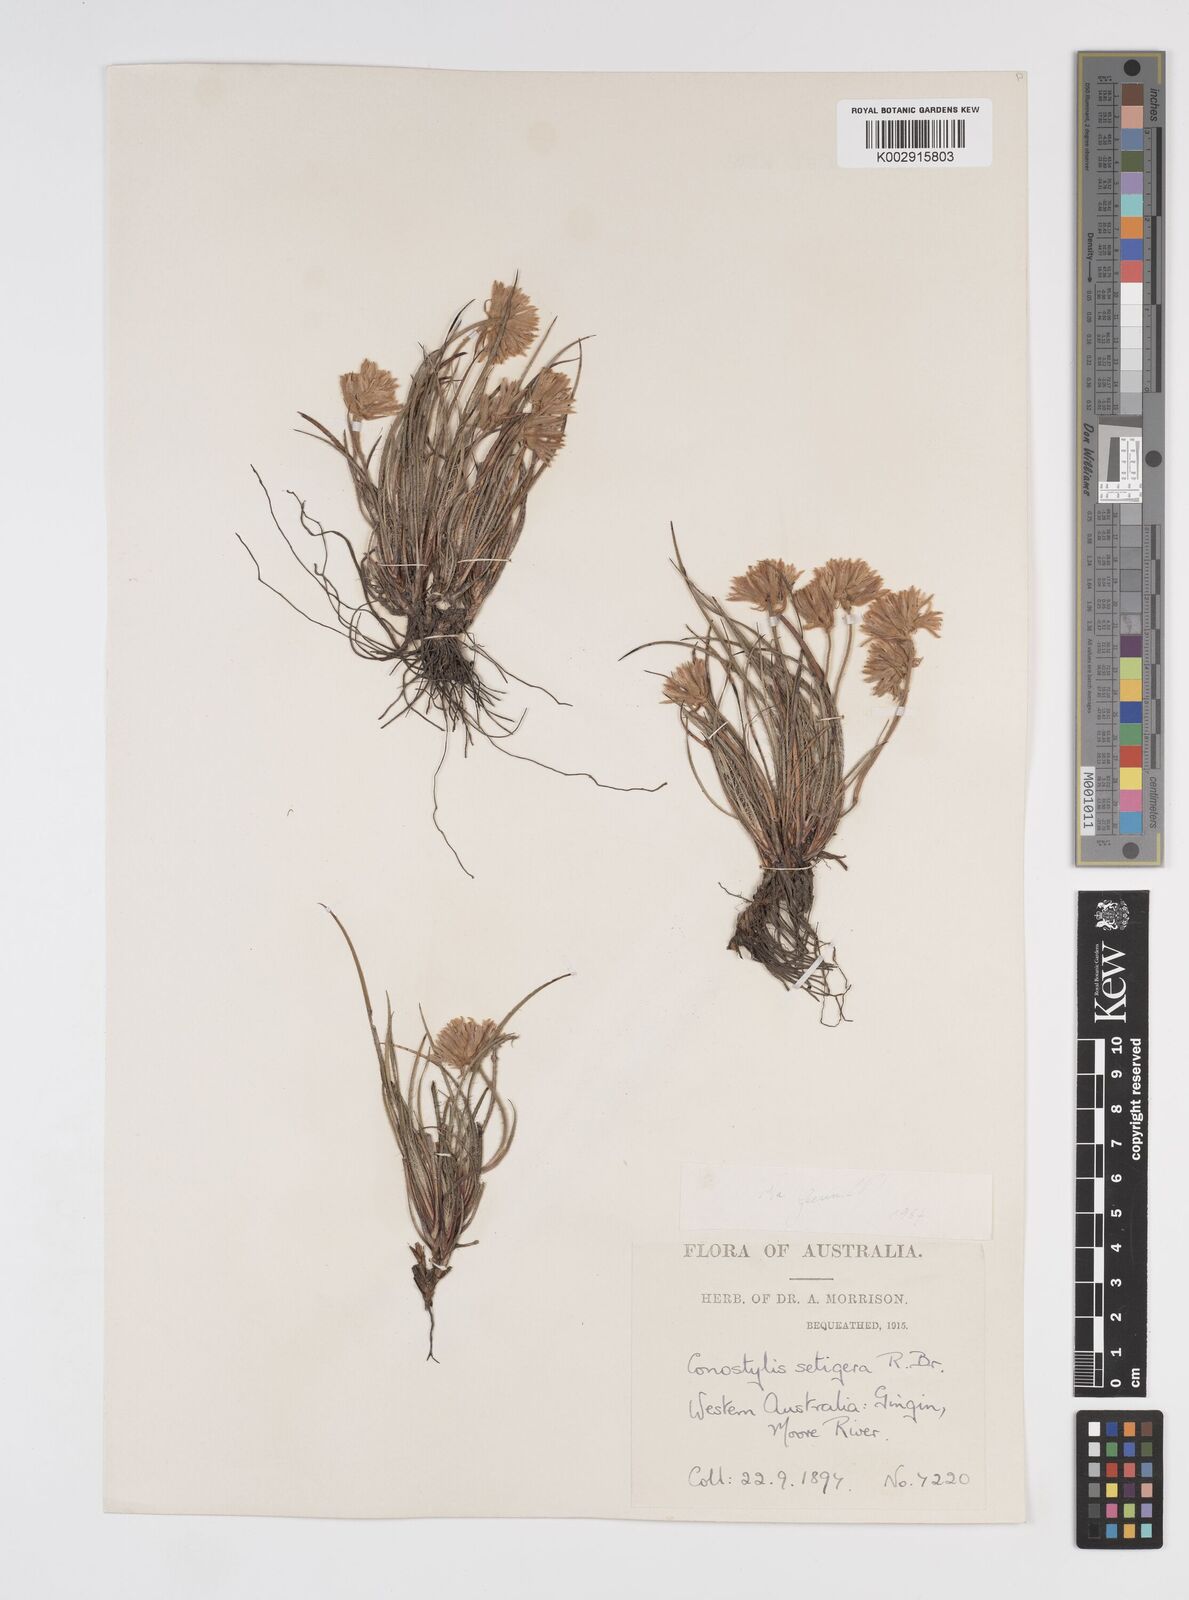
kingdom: Plantae
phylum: Tracheophyta
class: Liliopsida
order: Commelinales
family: Haemodoraceae
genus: Conostylis
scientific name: Conostylis setigera
